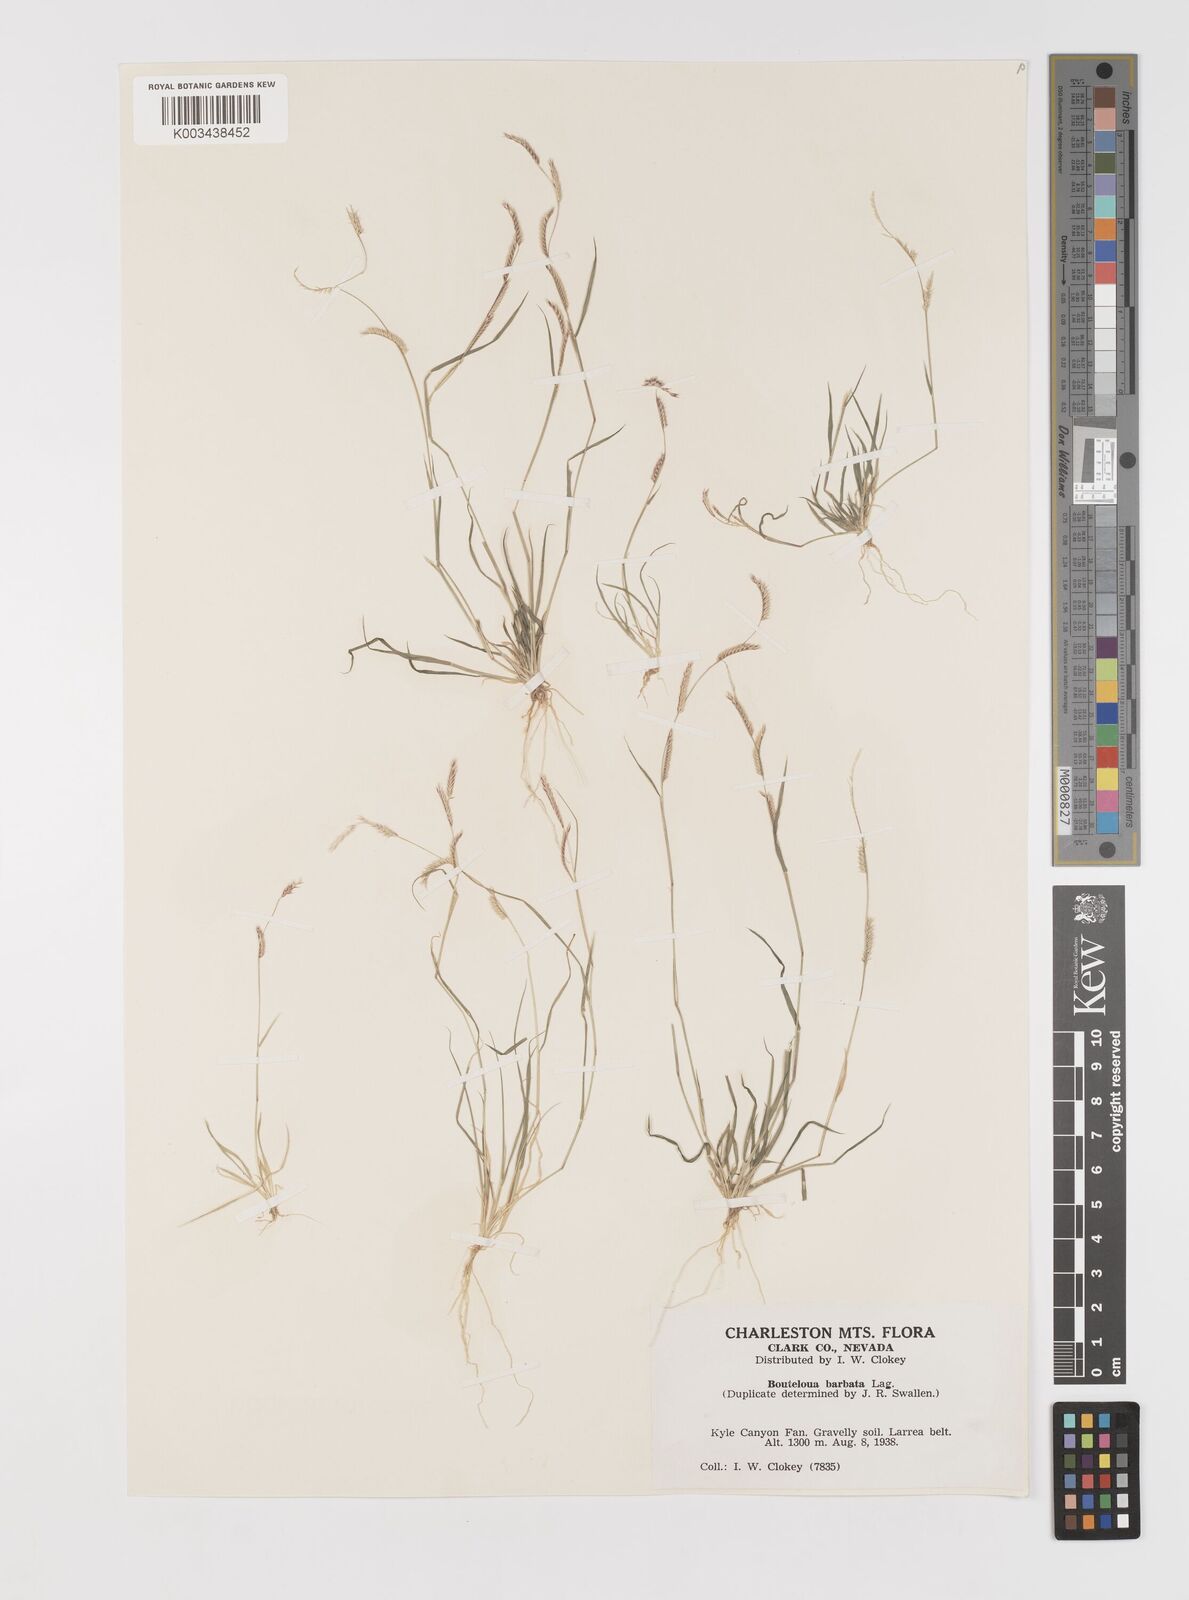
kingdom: Plantae
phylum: Tracheophyta
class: Liliopsida
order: Poales
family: Poaceae
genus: Bouteloua
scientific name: Bouteloua
